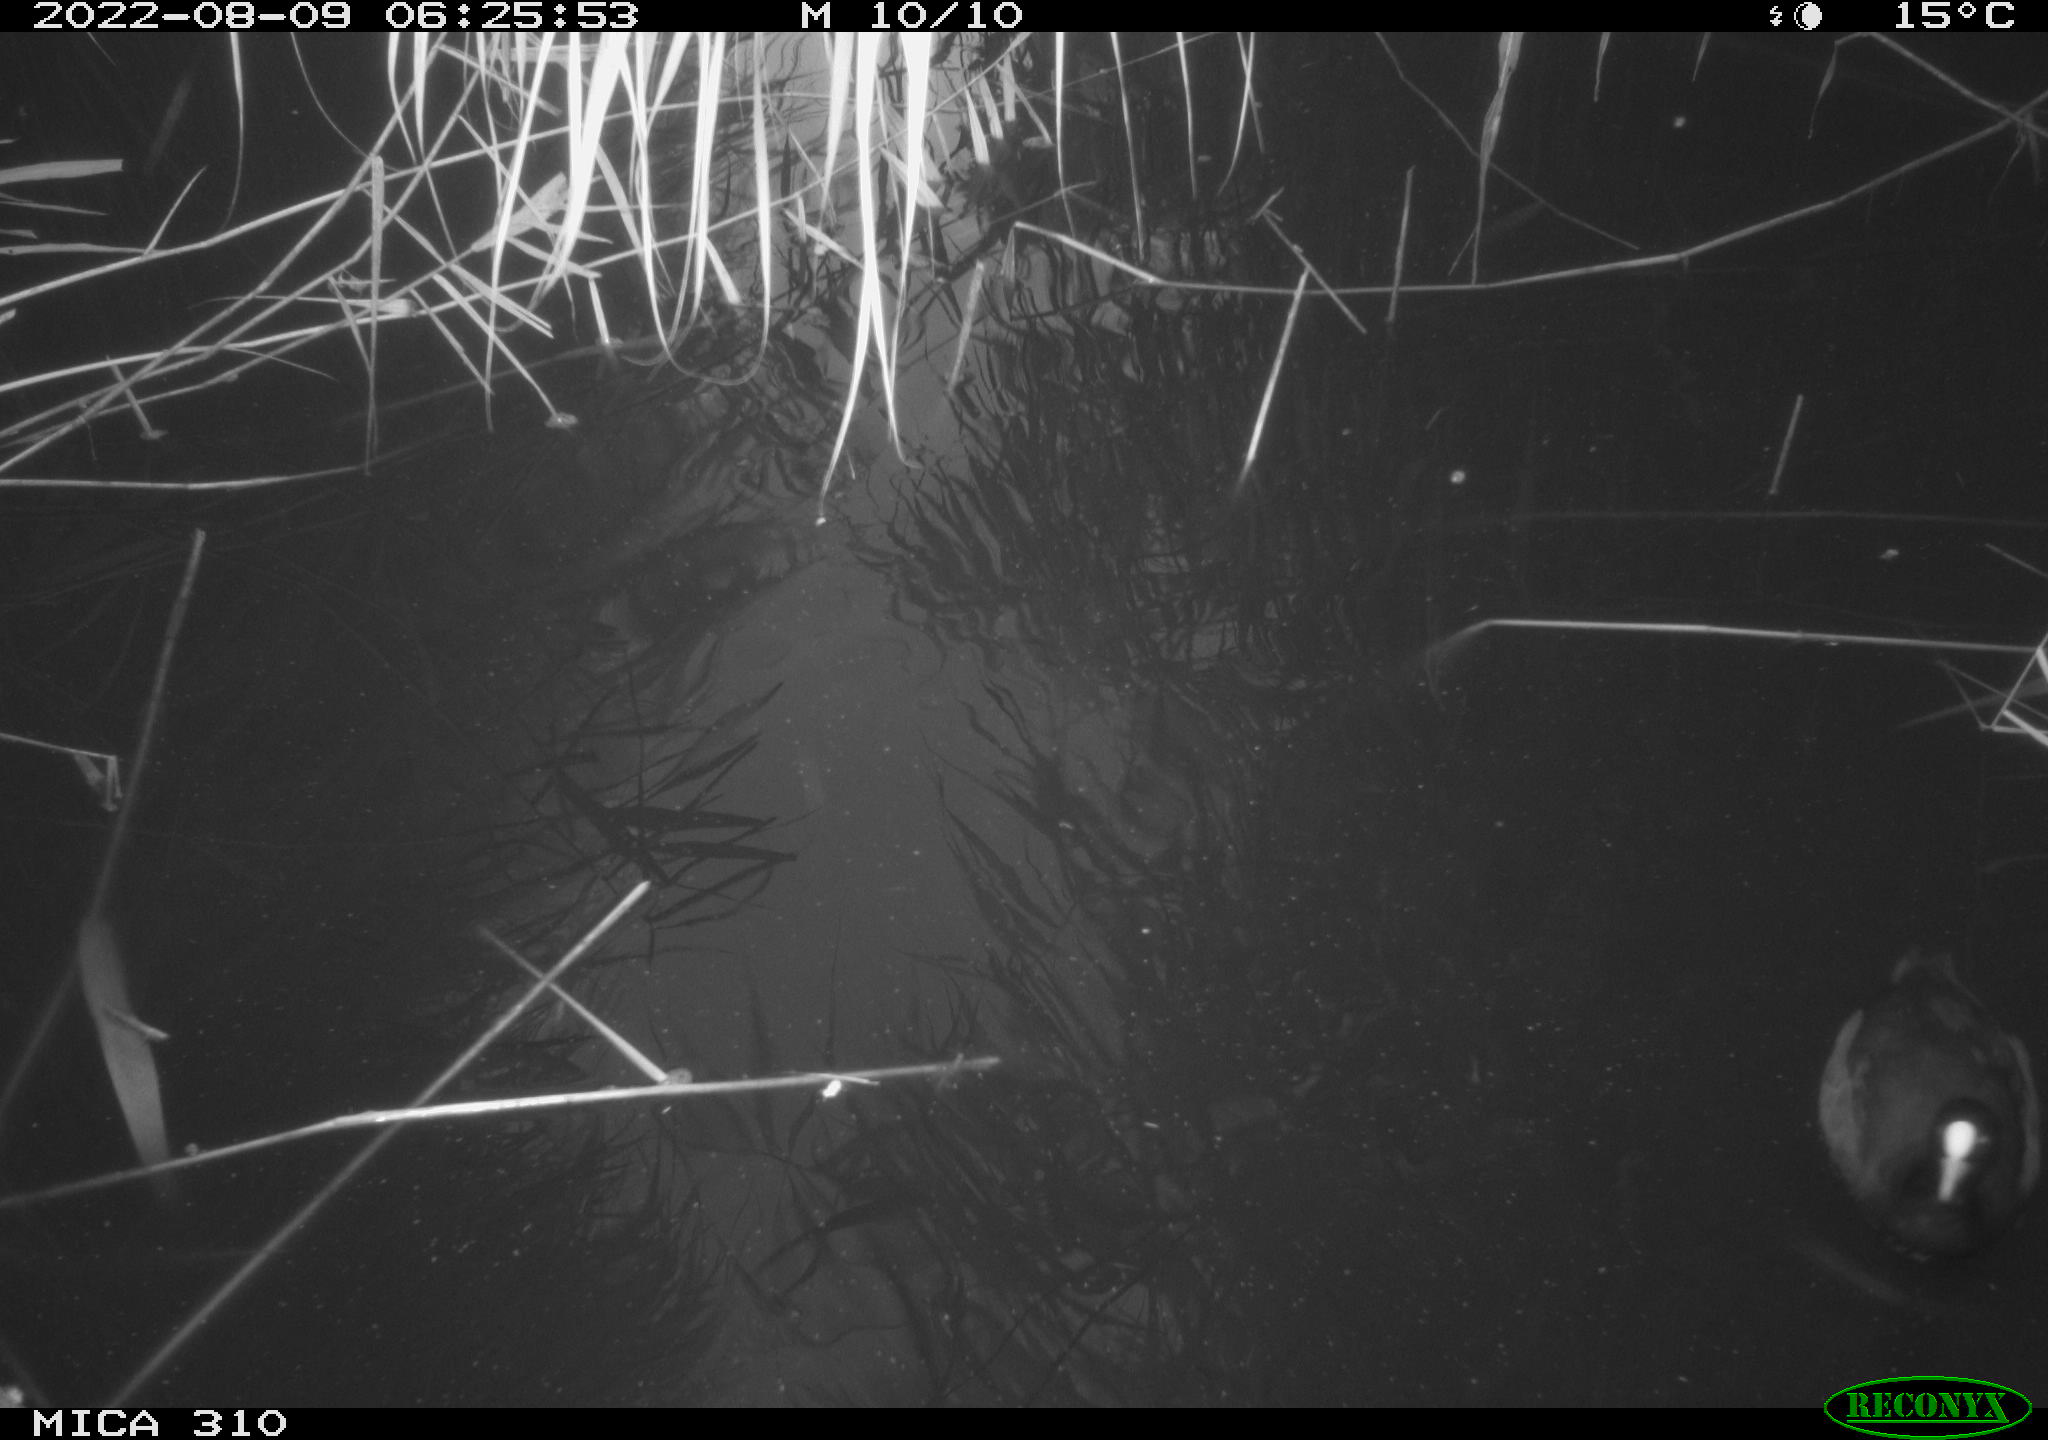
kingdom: Animalia
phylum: Chordata
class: Aves
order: Gruiformes
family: Rallidae
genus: Fulica
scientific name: Fulica atra
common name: Eurasian coot
